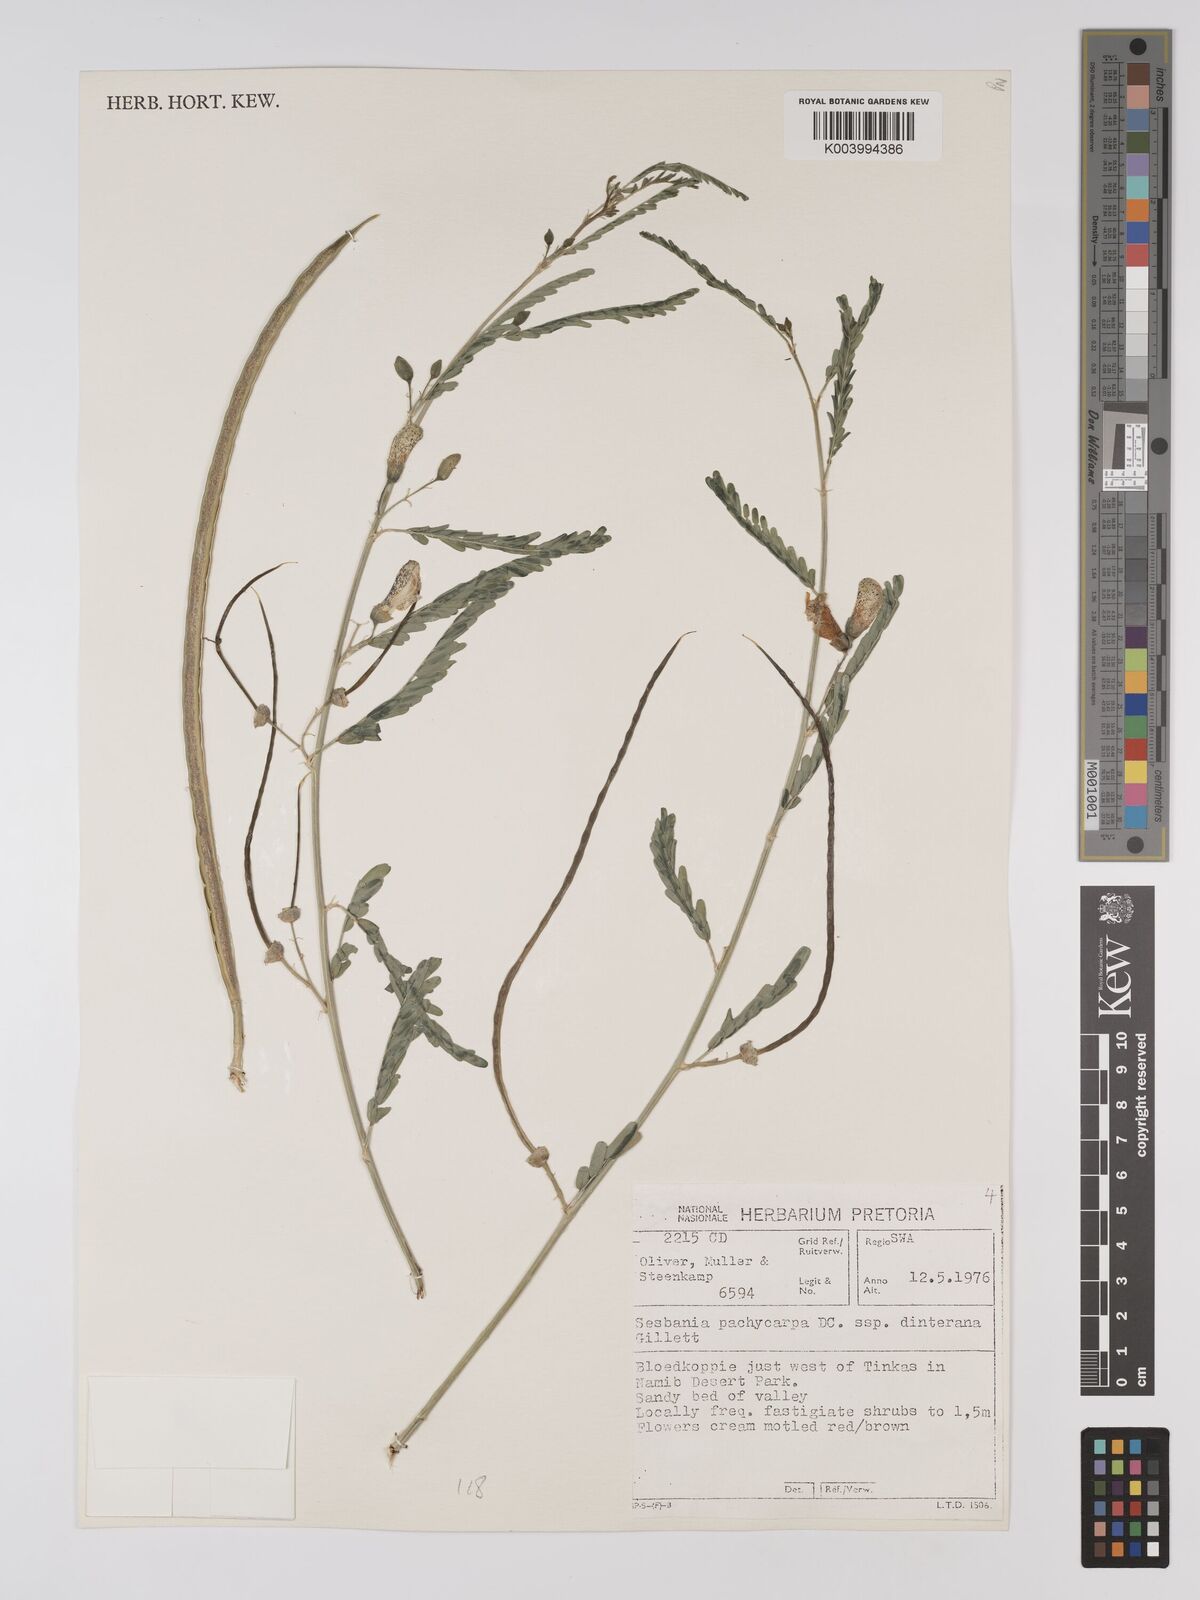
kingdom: Plantae
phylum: Tracheophyta
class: Magnoliopsida
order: Fabales
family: Fabaceae
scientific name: Fabaceae
